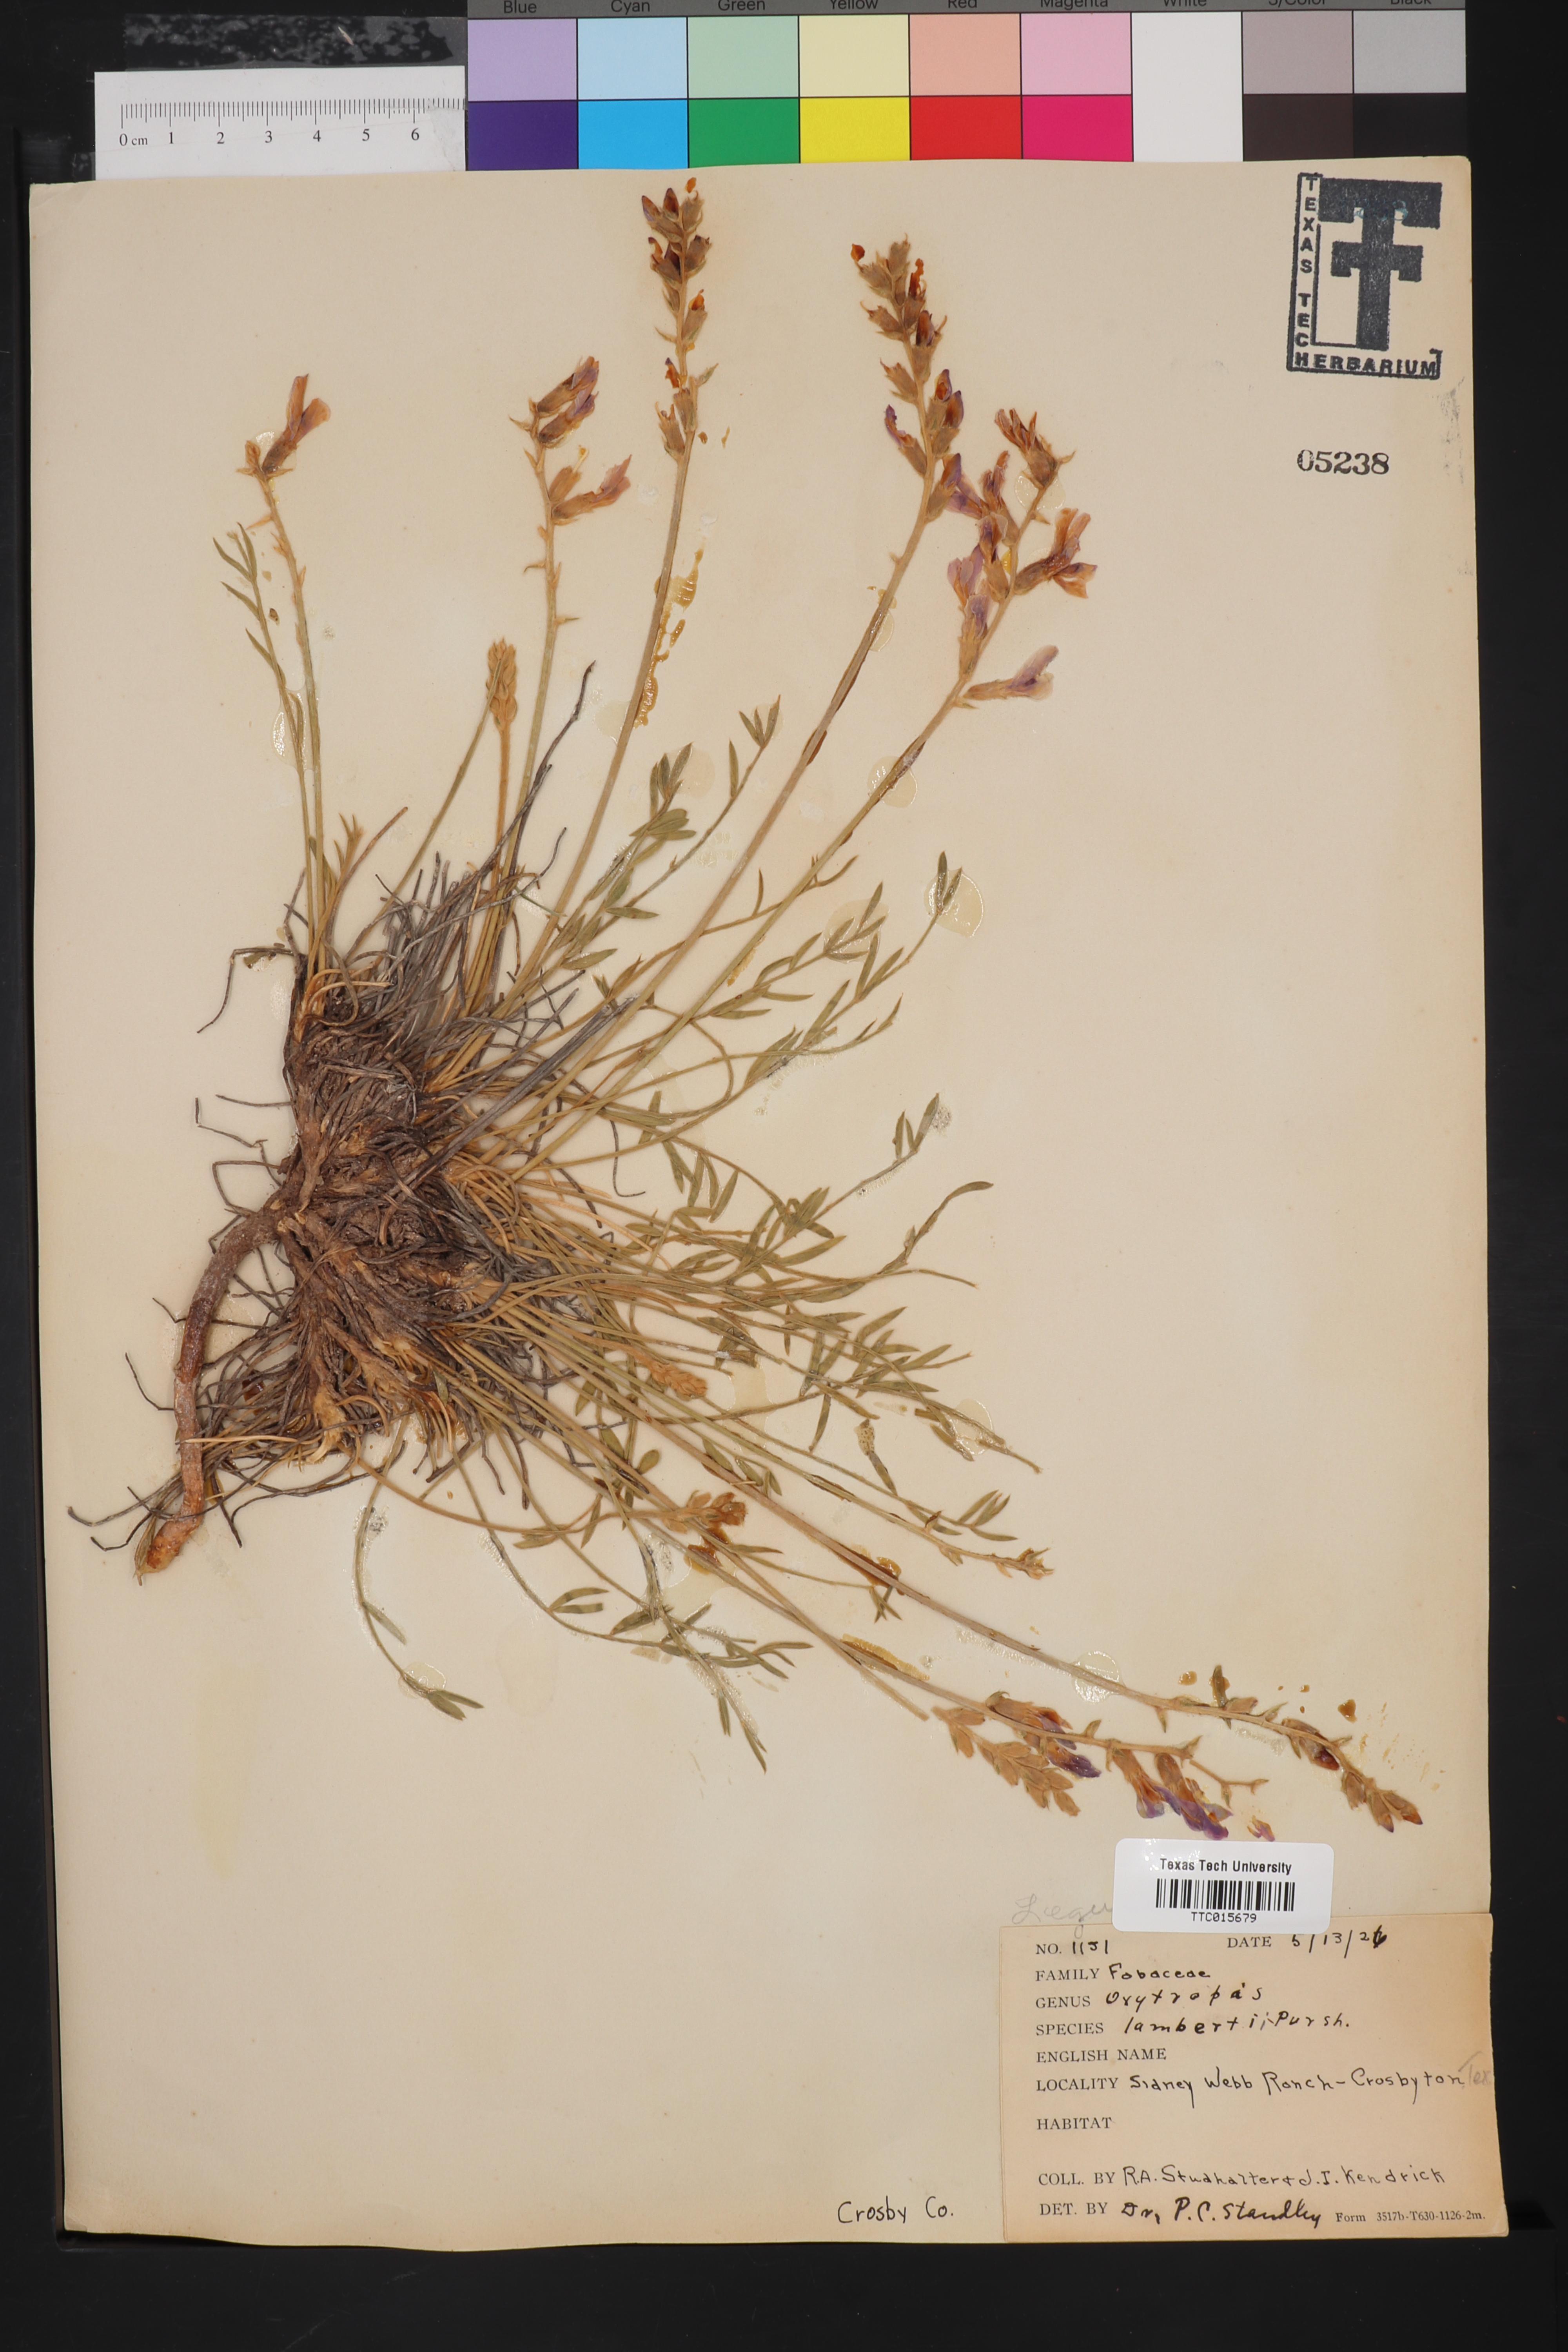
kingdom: Plantae
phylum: Tracheophyta
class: Magnoliopsida
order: Fabales
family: Fabaceae
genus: Oxytropis
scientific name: Oxytropis lambertii
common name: Purple locoweed
